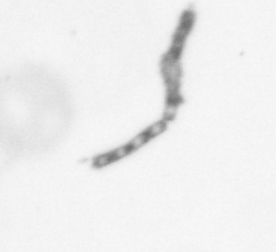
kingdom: Chromista
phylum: Ochrophyta
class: Bacillariophyceae
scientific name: Bacillariophyceae
